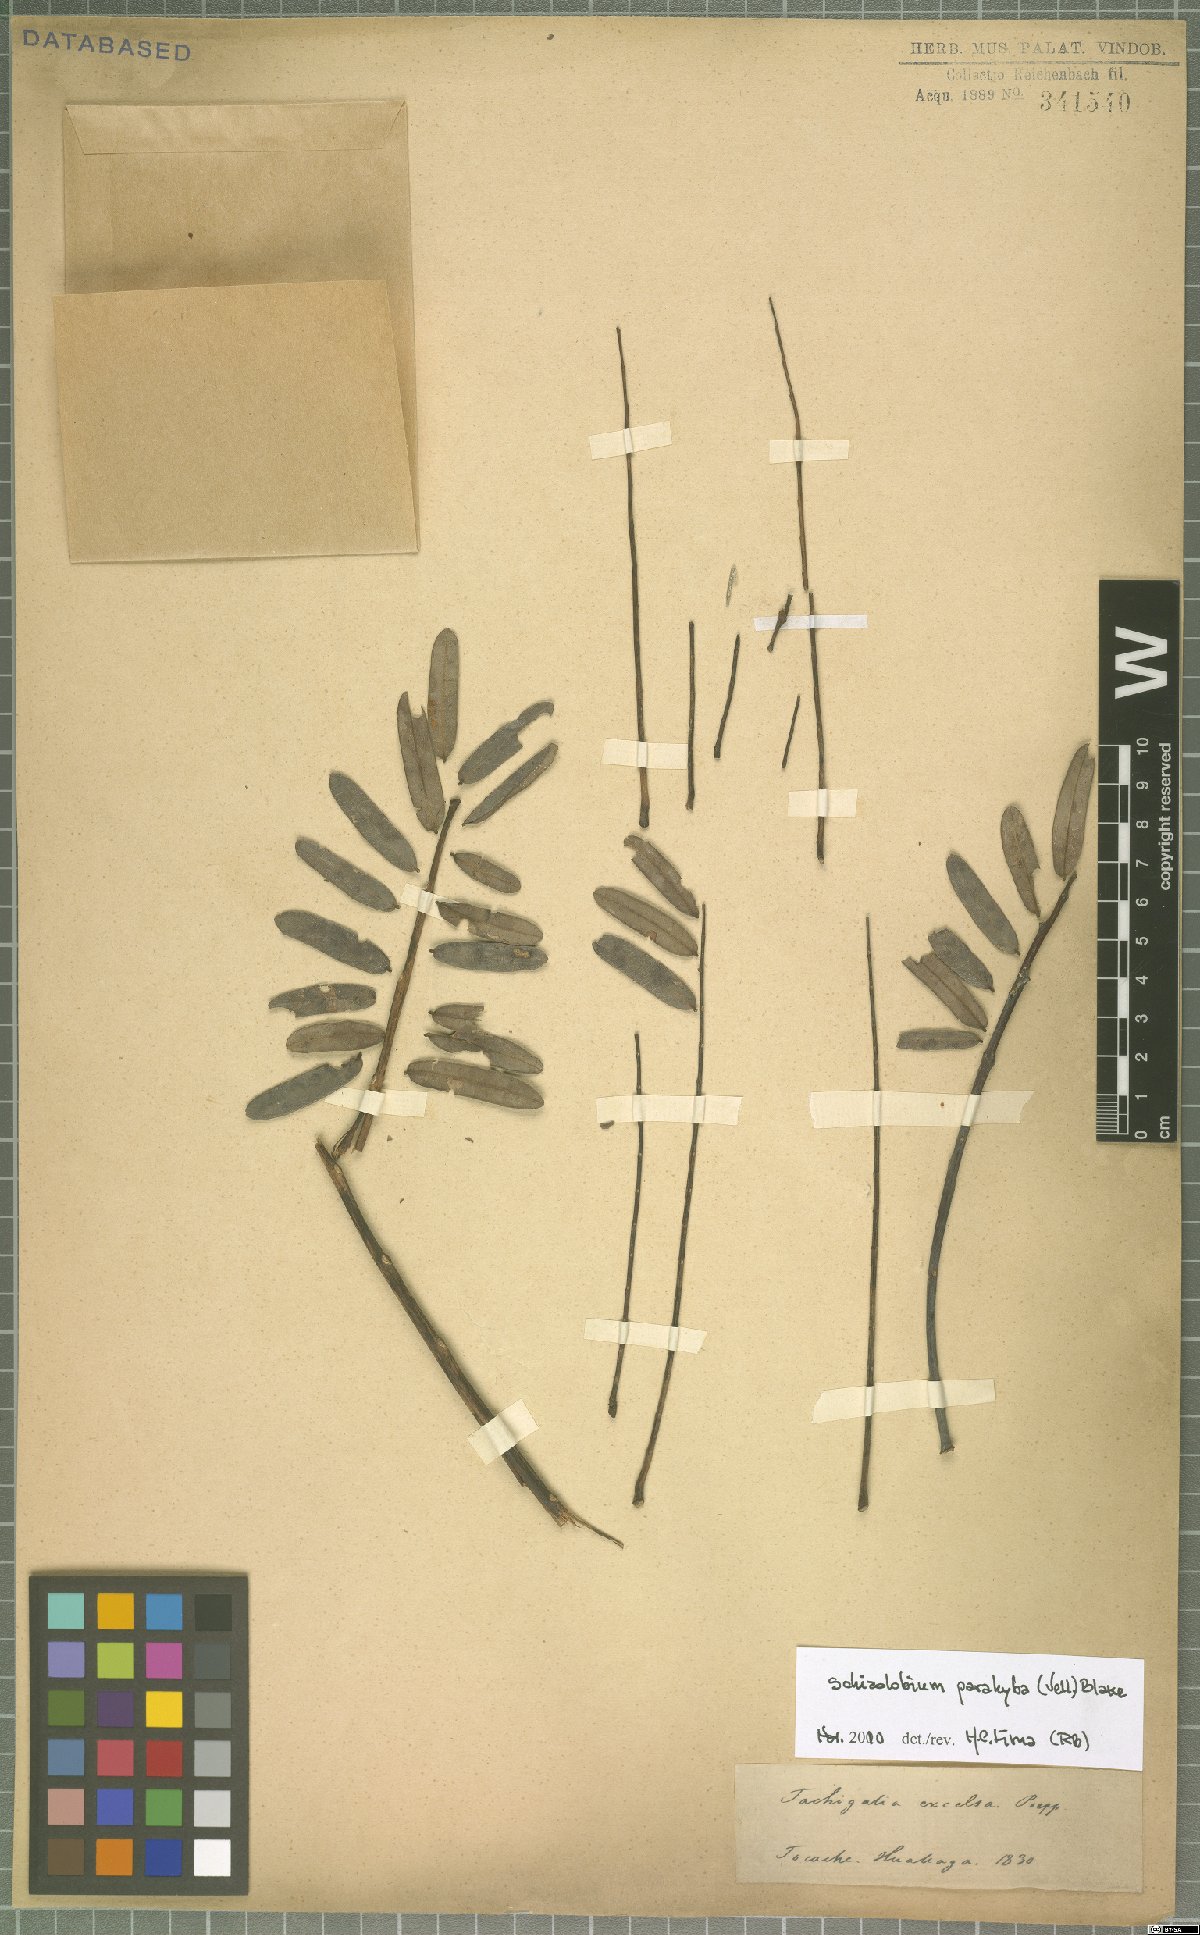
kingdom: Plantae
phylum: Tracheophyta
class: Magnoliopsida
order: Fabales
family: Fabaceae
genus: Schizolobium
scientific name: Schizolobium parahyba
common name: Brazilian firetree
